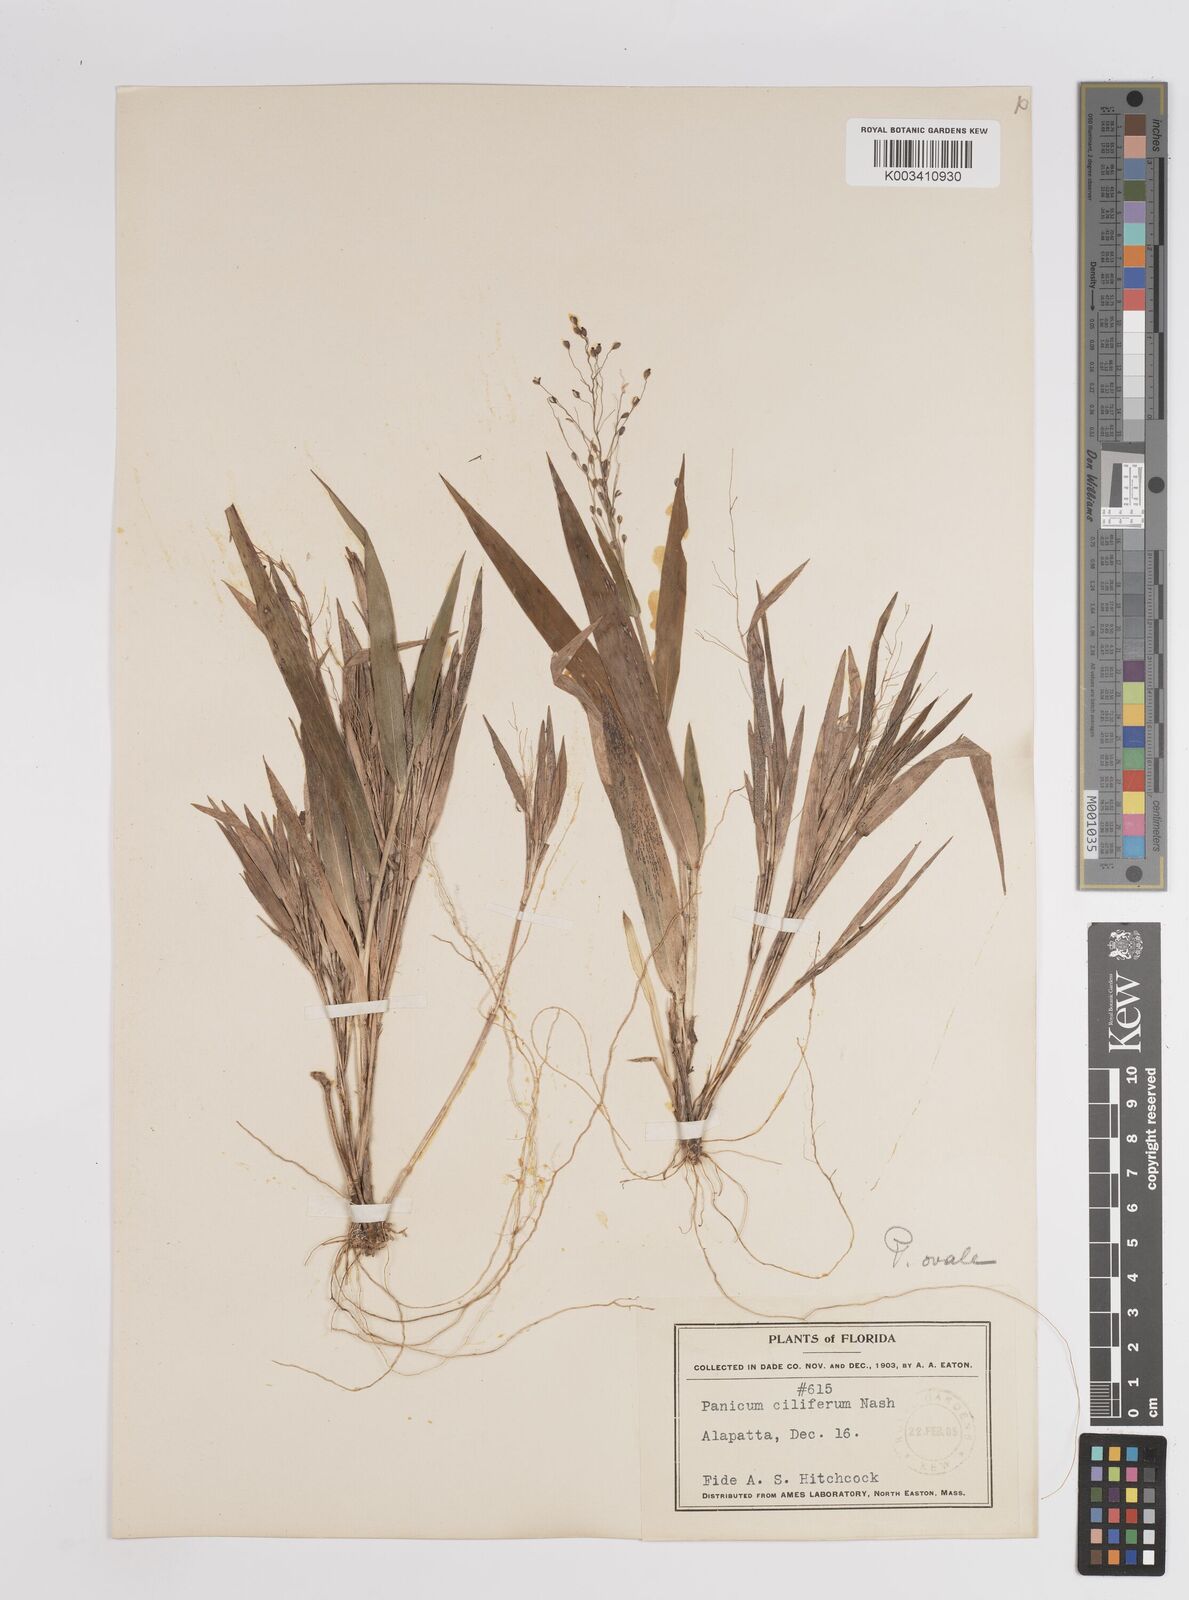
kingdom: Plantae
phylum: Tracheophyta
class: Liliopsida
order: Poales
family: Poaceae
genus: Dichanthelium
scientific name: Dichanthelium ovale
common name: Stiff-leaved panicgrass
